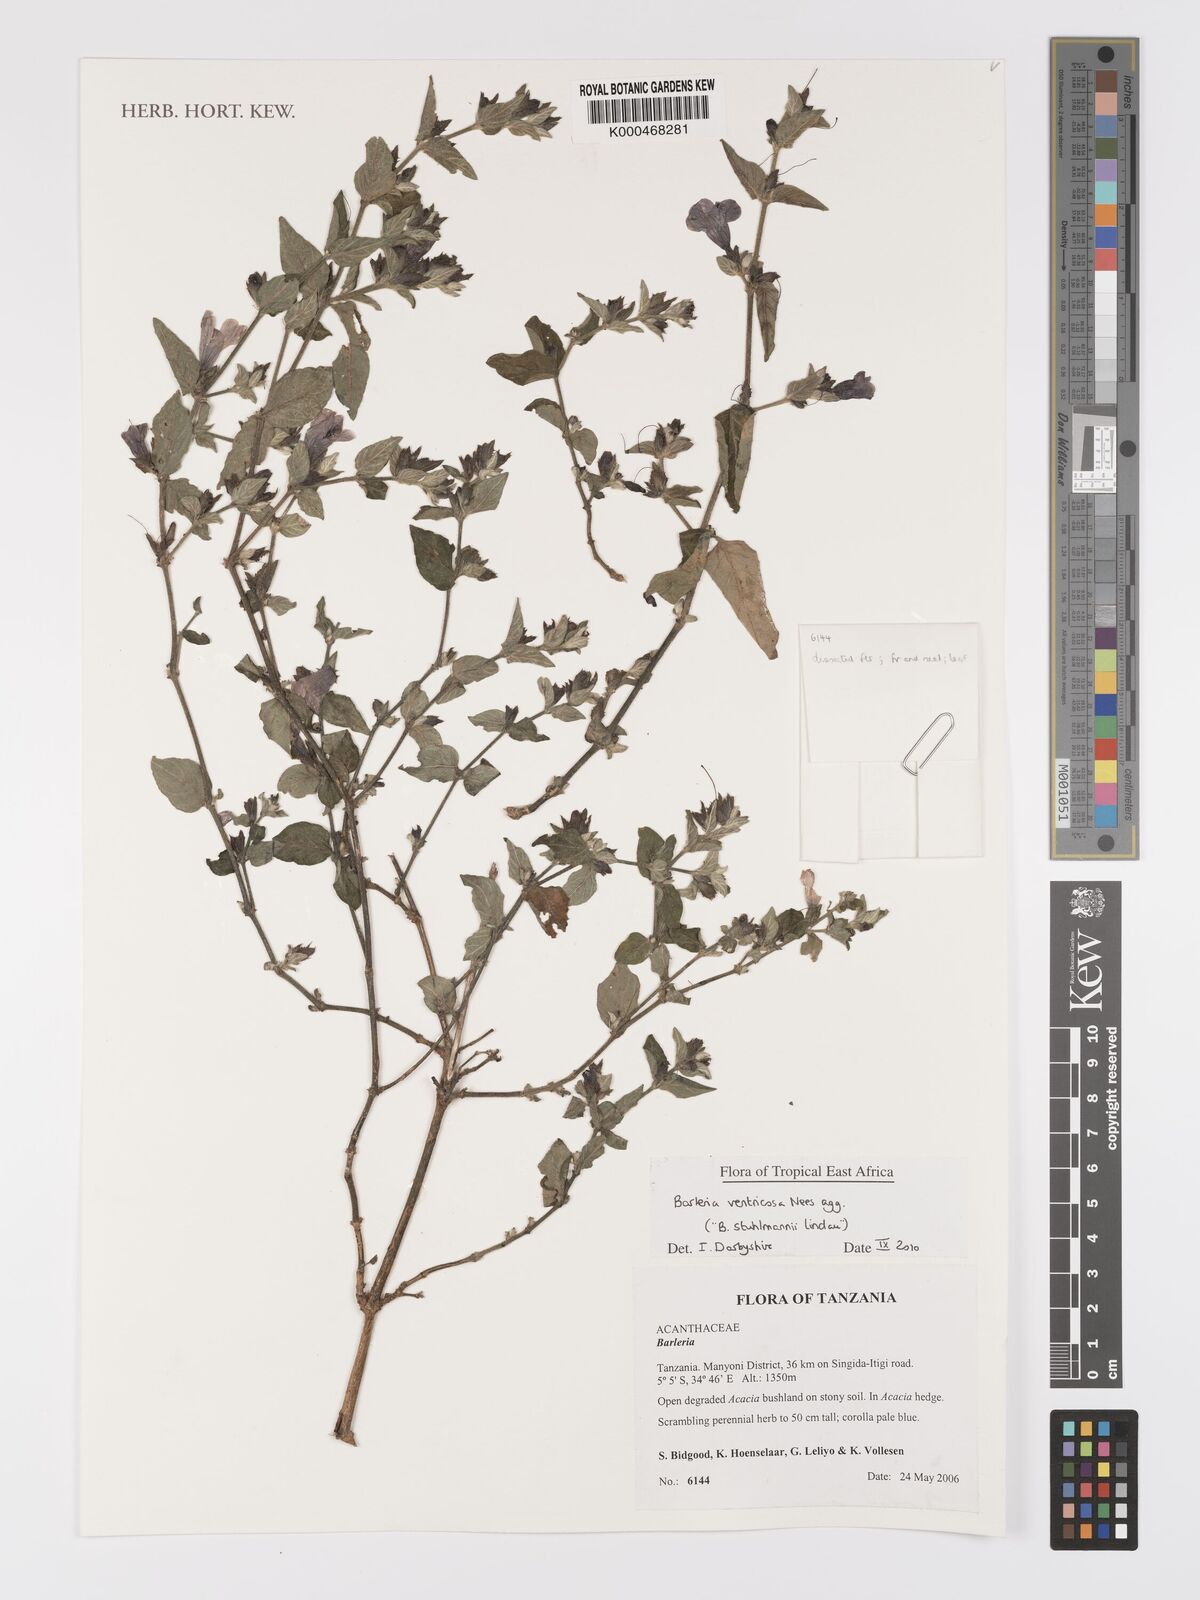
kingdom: Plantae
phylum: Tracheophyta
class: Magnoliopsida
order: Lamiales
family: Acanthaceae
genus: Barleria
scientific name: Barleria
